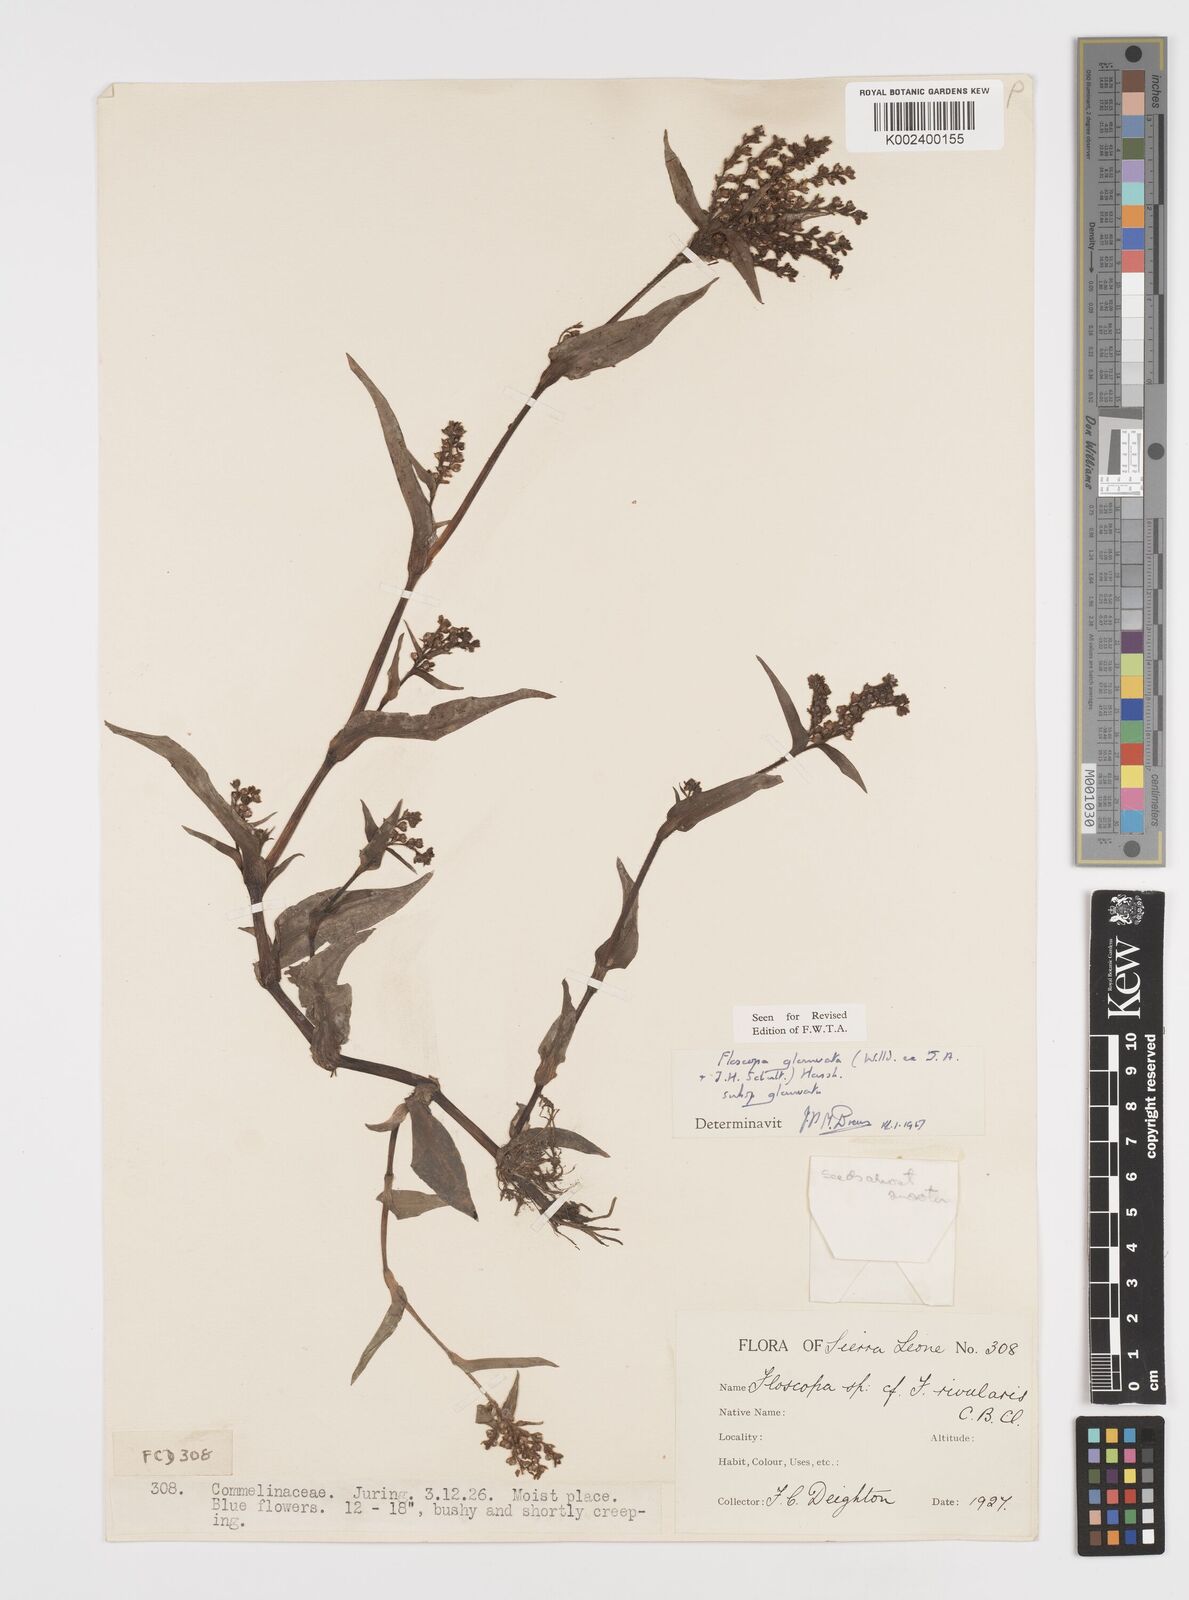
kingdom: Plantae
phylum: Tracheophyta
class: Liliopsida
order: Commelinales
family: Commelinaceae
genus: Floscopa
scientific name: Floscopa glomerata
